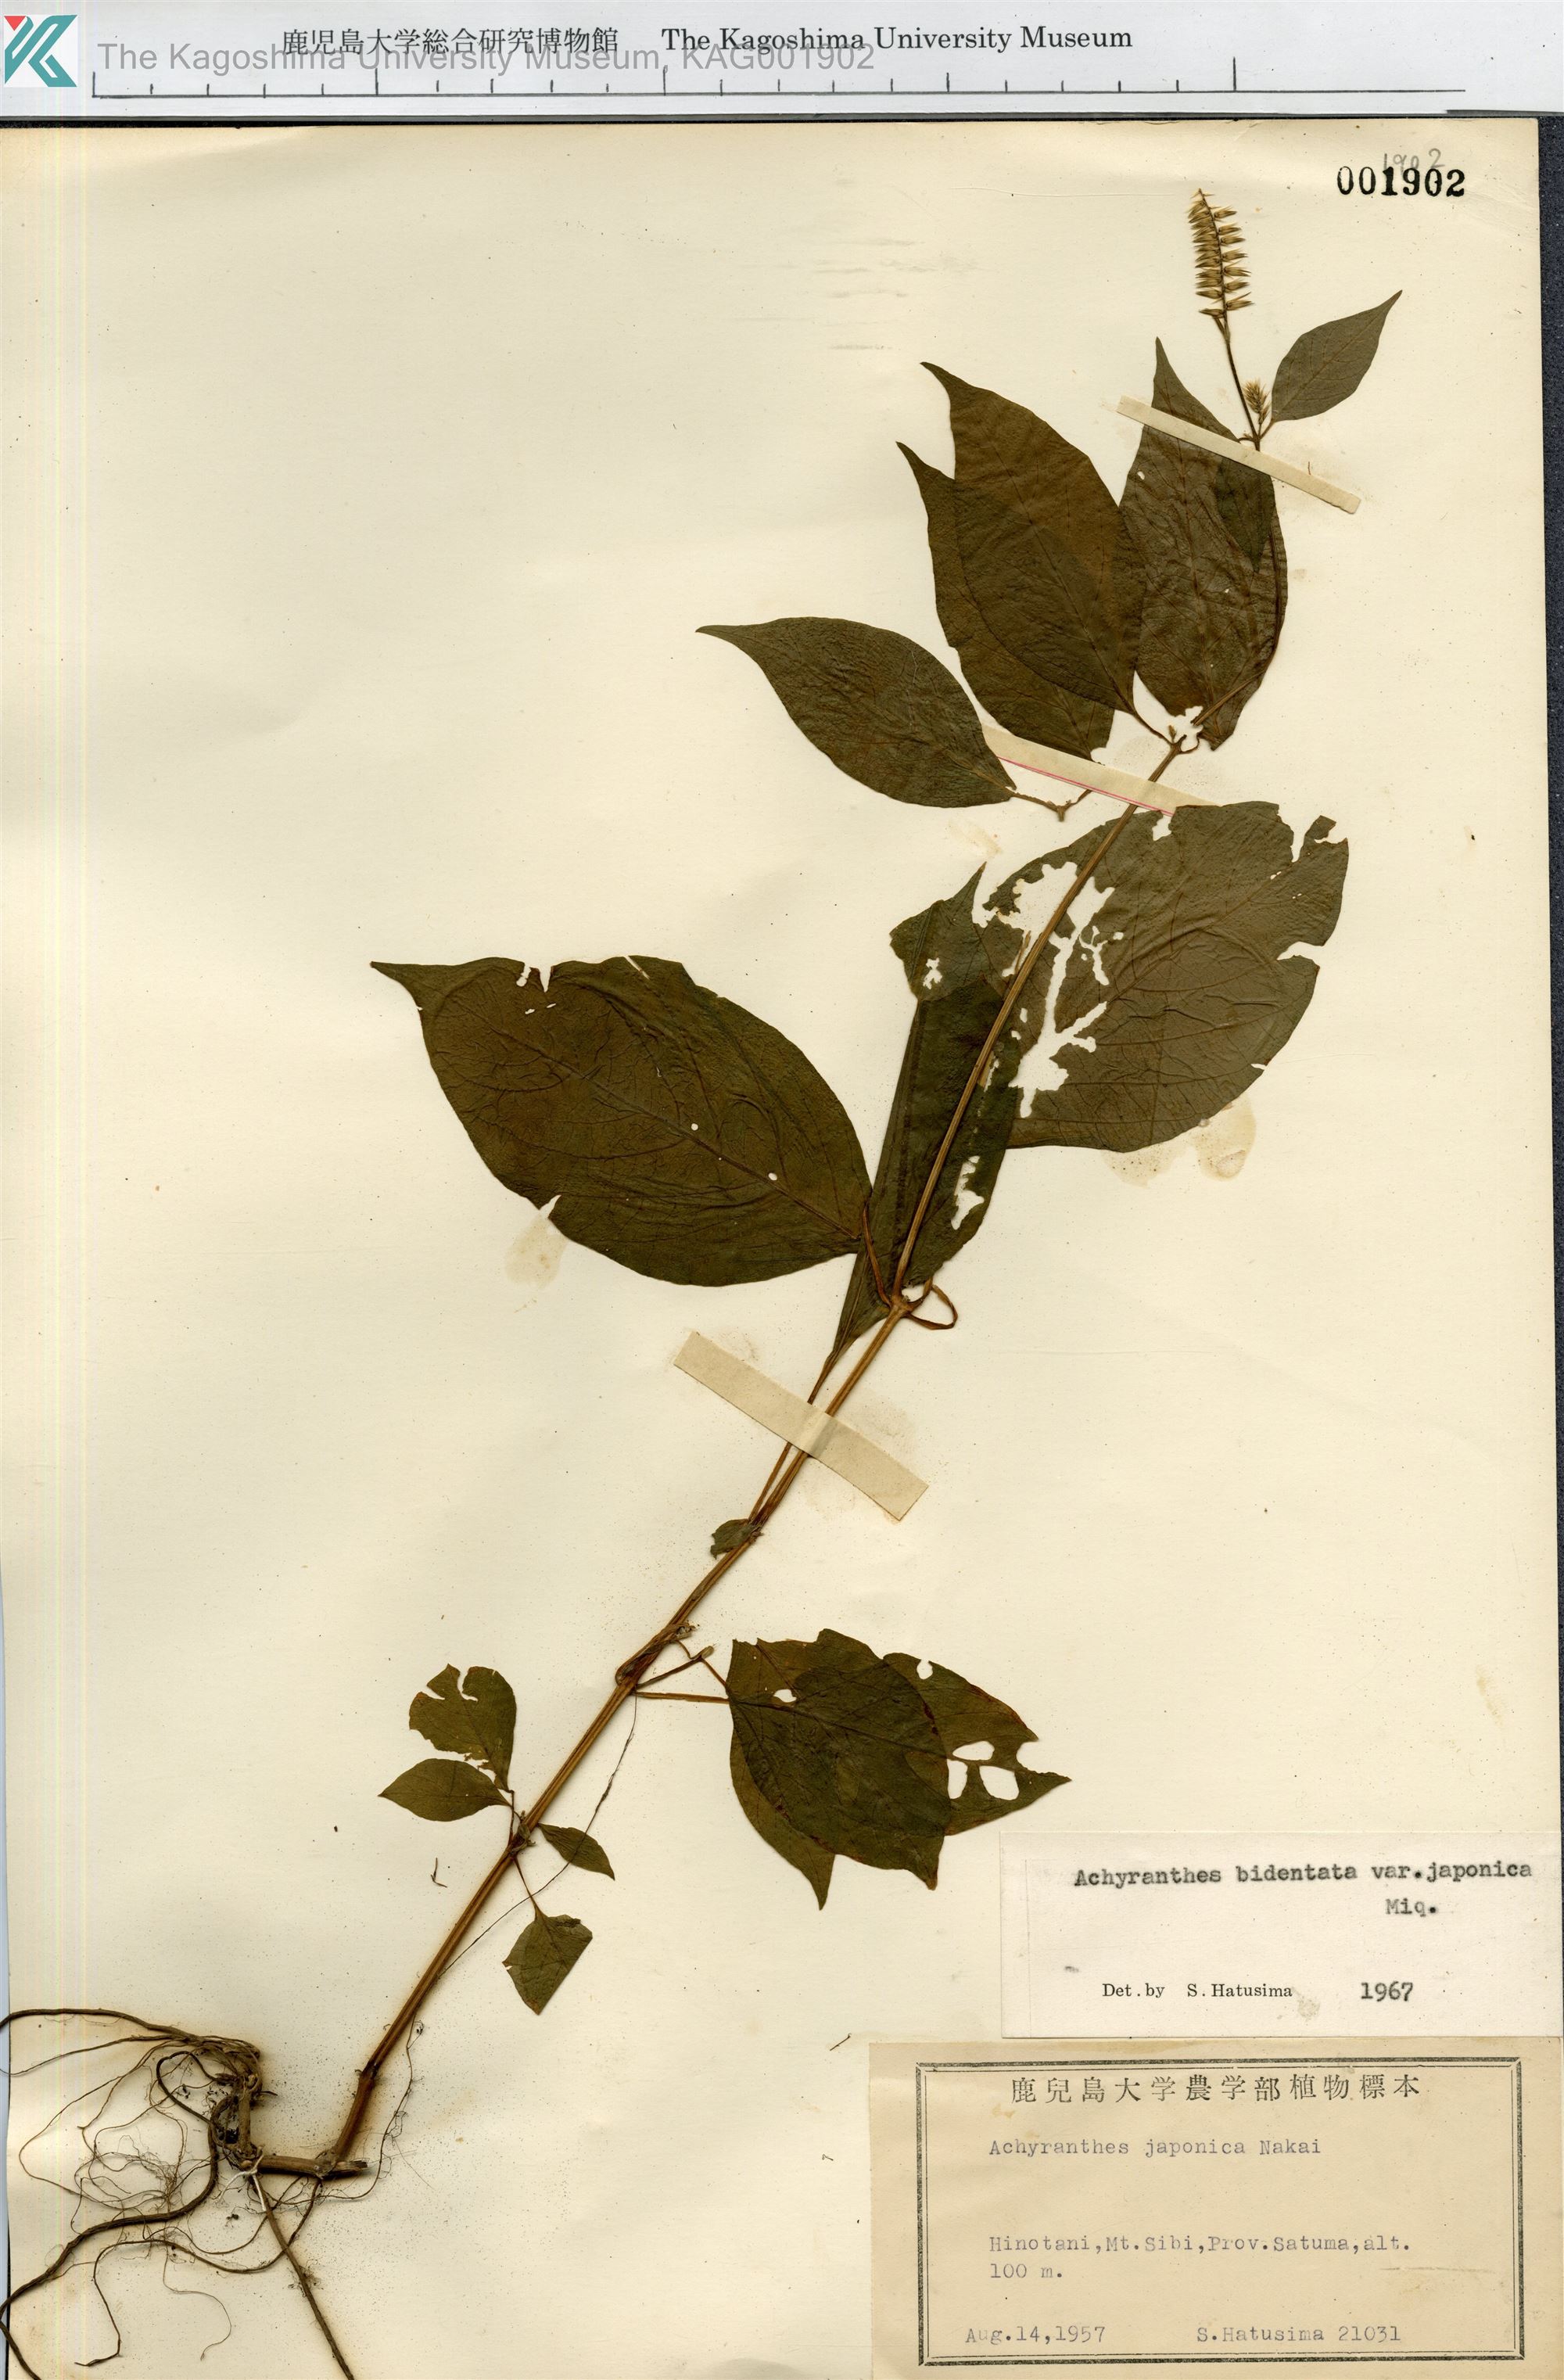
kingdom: Plantae
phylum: Tracheophyta
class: Magnoliopsida
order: Caryophyllales
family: Amaranthaceae
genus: Achyranthes
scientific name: Achyranthes bidentata
